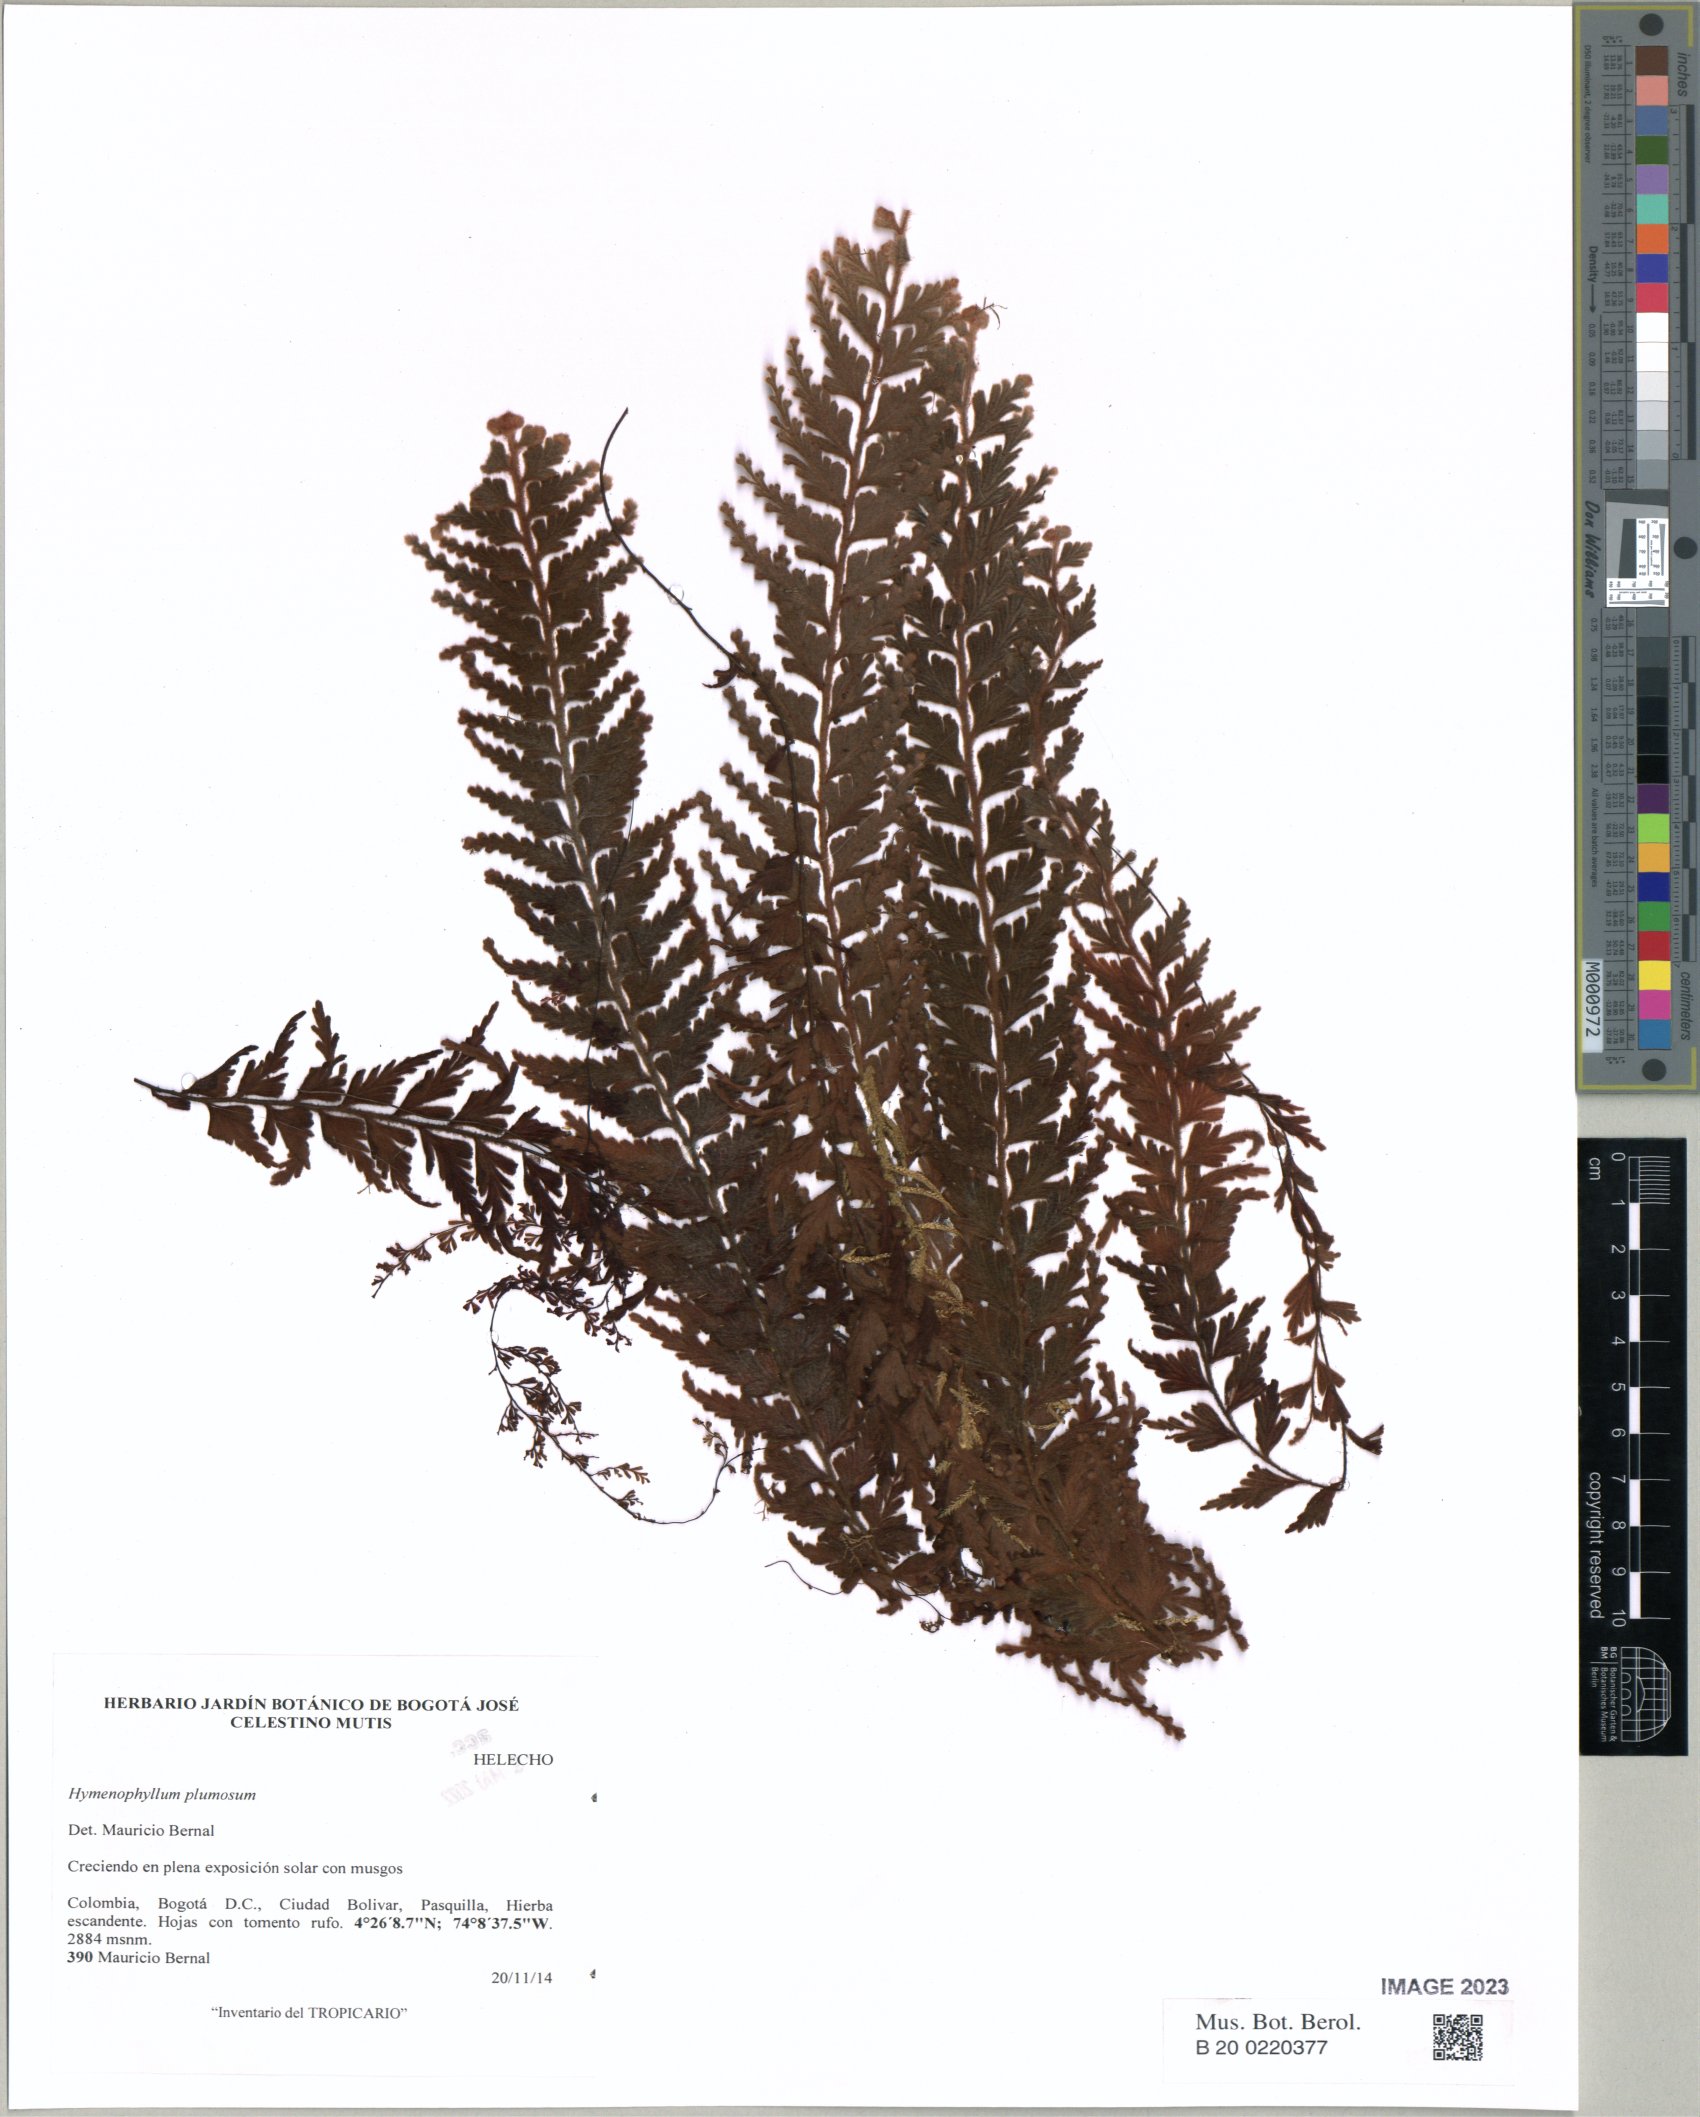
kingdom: Plantae
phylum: Tracheophyta
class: Polypodiopsida
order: Hymenophyllales
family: Hymenophyllaceae
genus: Hymenophyllum
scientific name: Hymenophyllum plumosum
